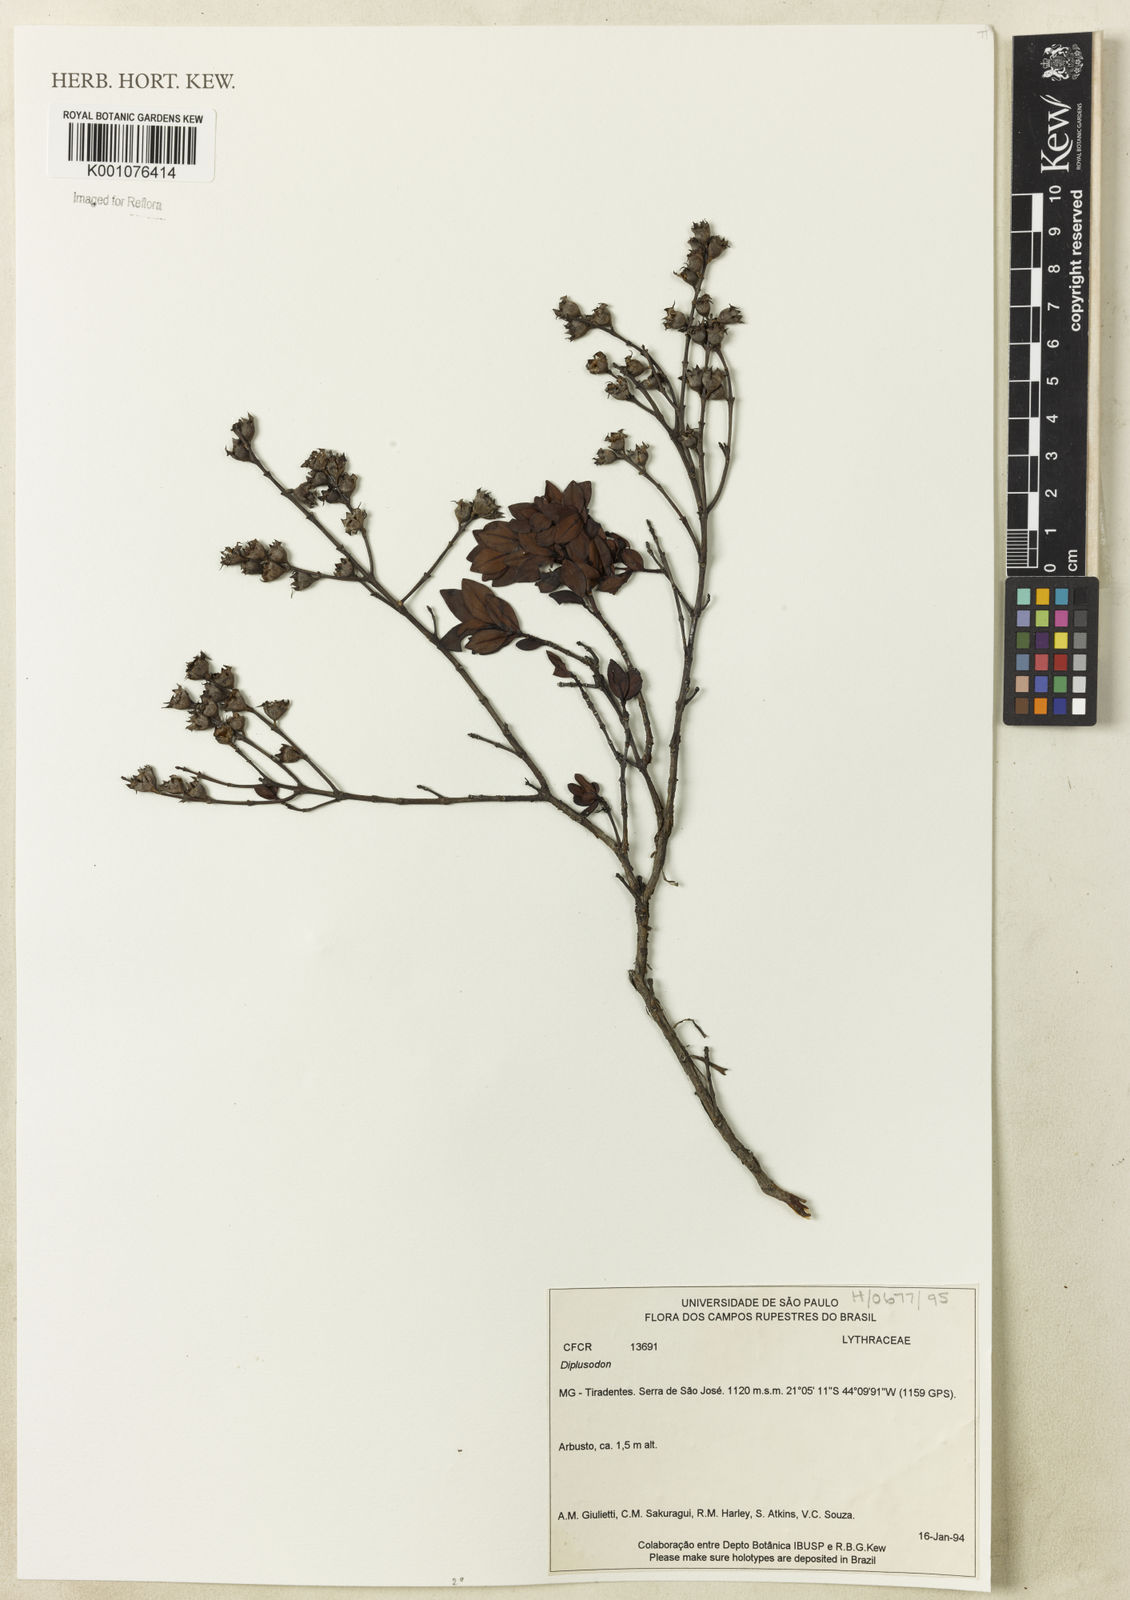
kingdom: Plantae
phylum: Tracheophyta
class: Magnoliopsida
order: Myrtales
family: Lythraceae
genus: Diplusodon
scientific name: Diplusodon
